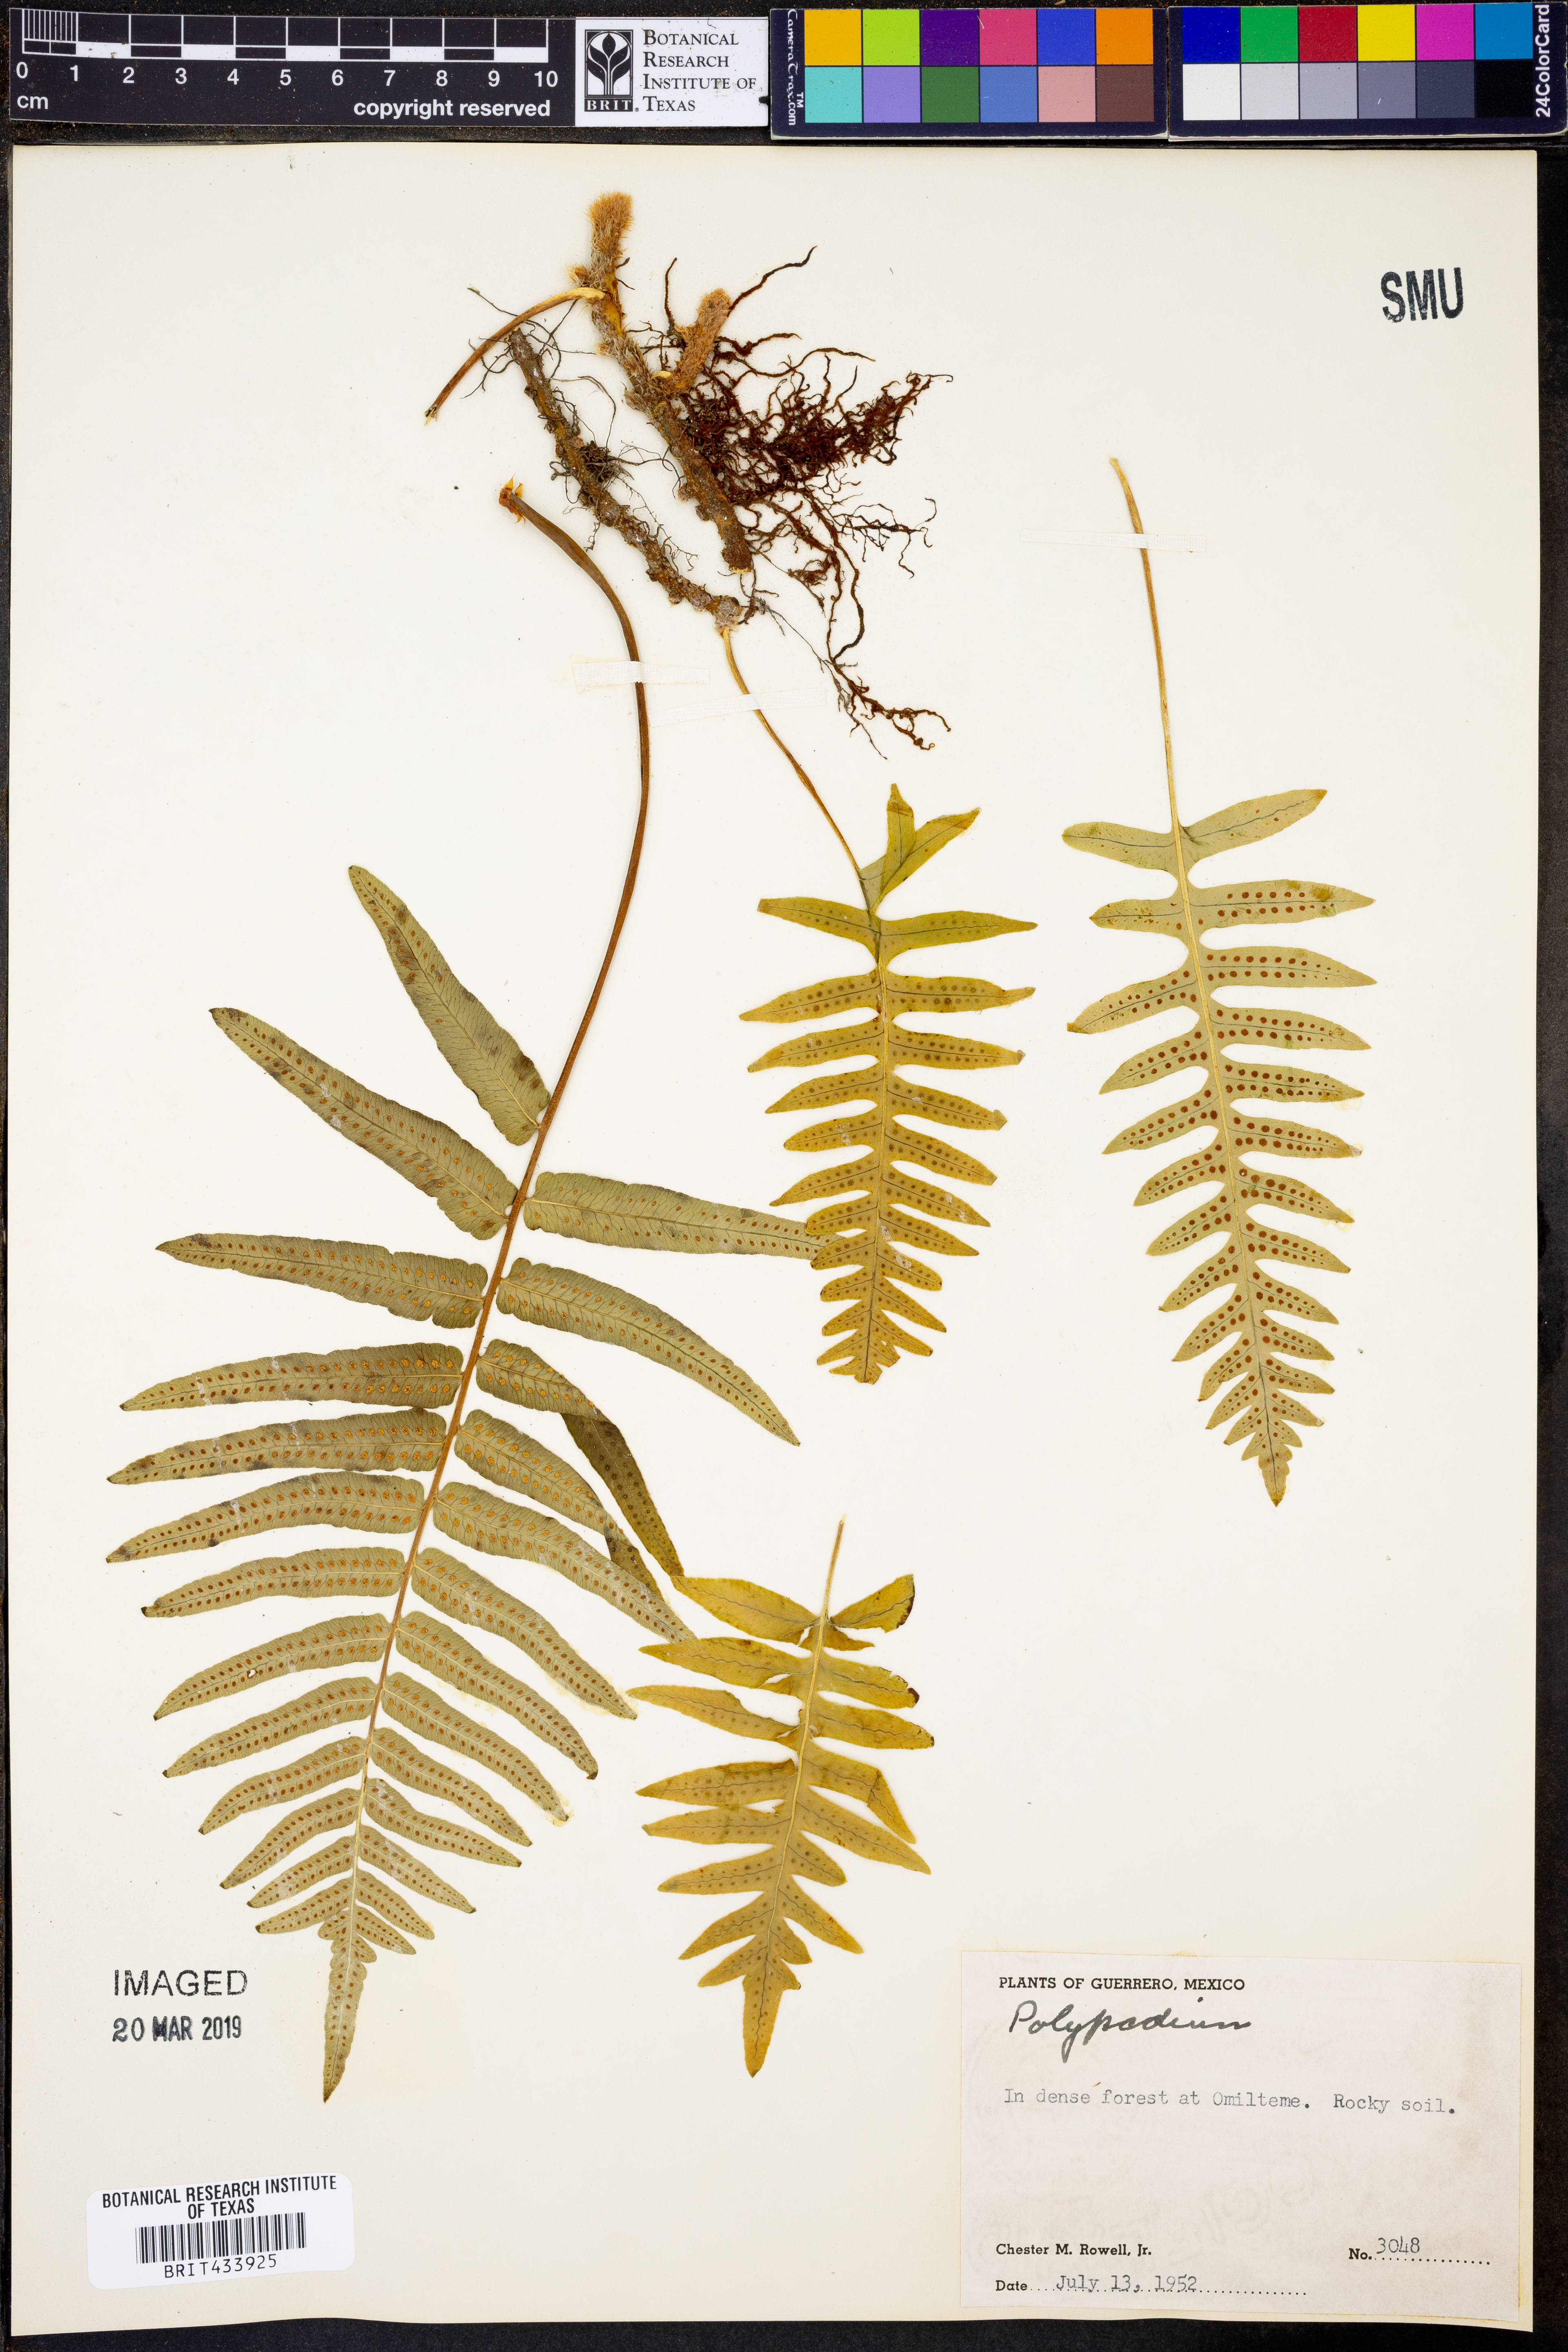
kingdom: Plantae
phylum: Tracheophyta
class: Polypodiopsida
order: Polypodiales
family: Polypodiaceae
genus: Polypodium
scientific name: Polypodium
